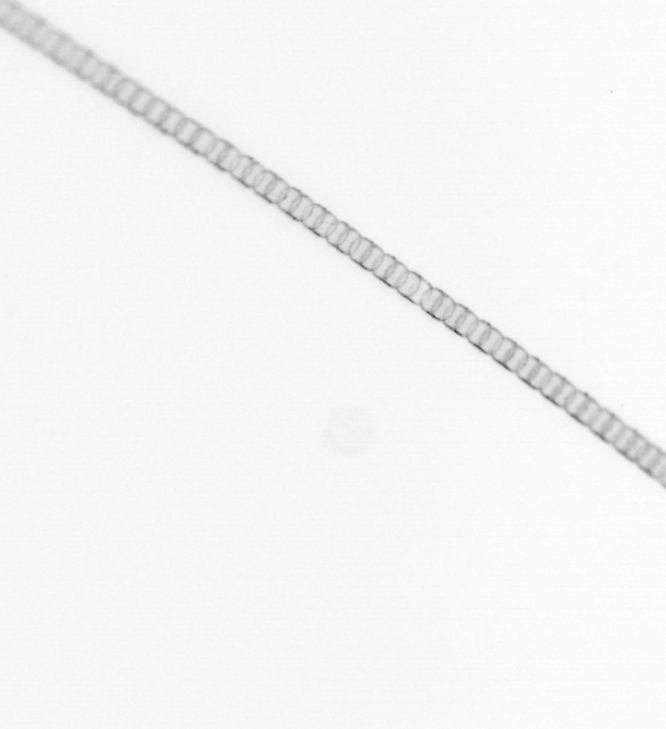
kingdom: Chromista
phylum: Ochrophyta
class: Bacillariophyceae
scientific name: Bacillariophyceae
